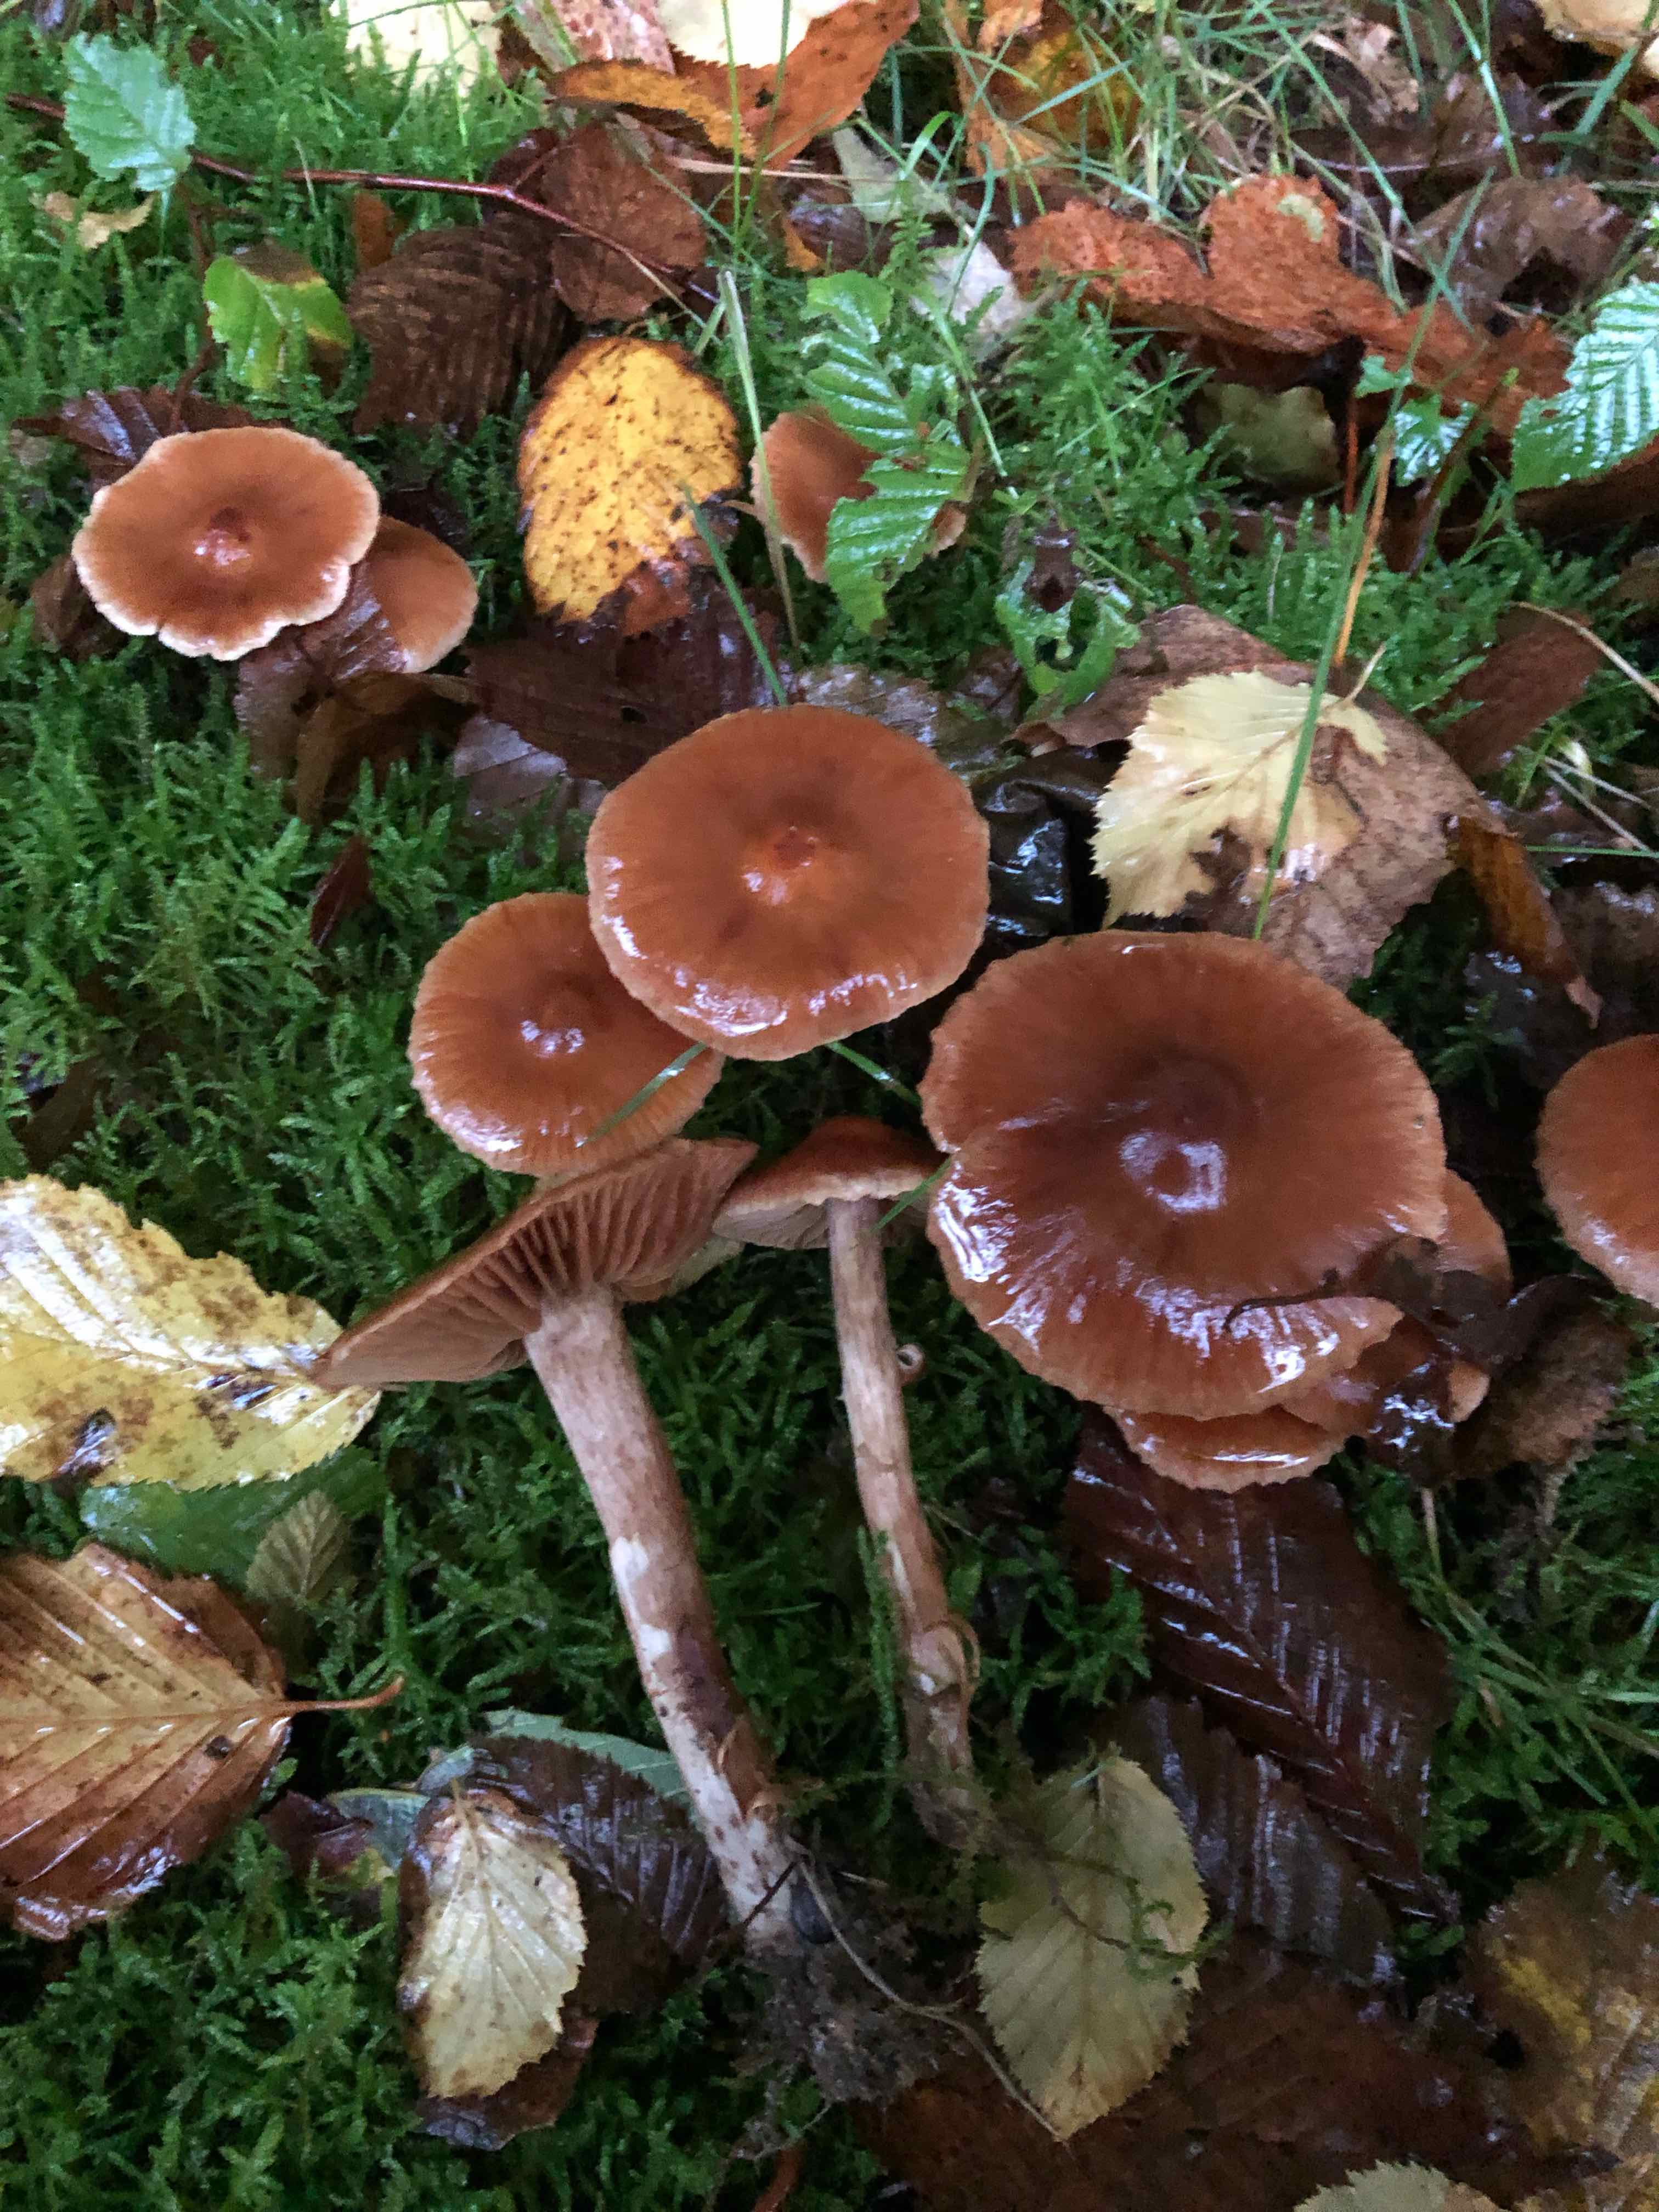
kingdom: Fungi
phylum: Basidiomycota
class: Agaricomycetes
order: Agaricales
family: Cortinariaceae
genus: Cortinarius
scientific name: Cortinarius
